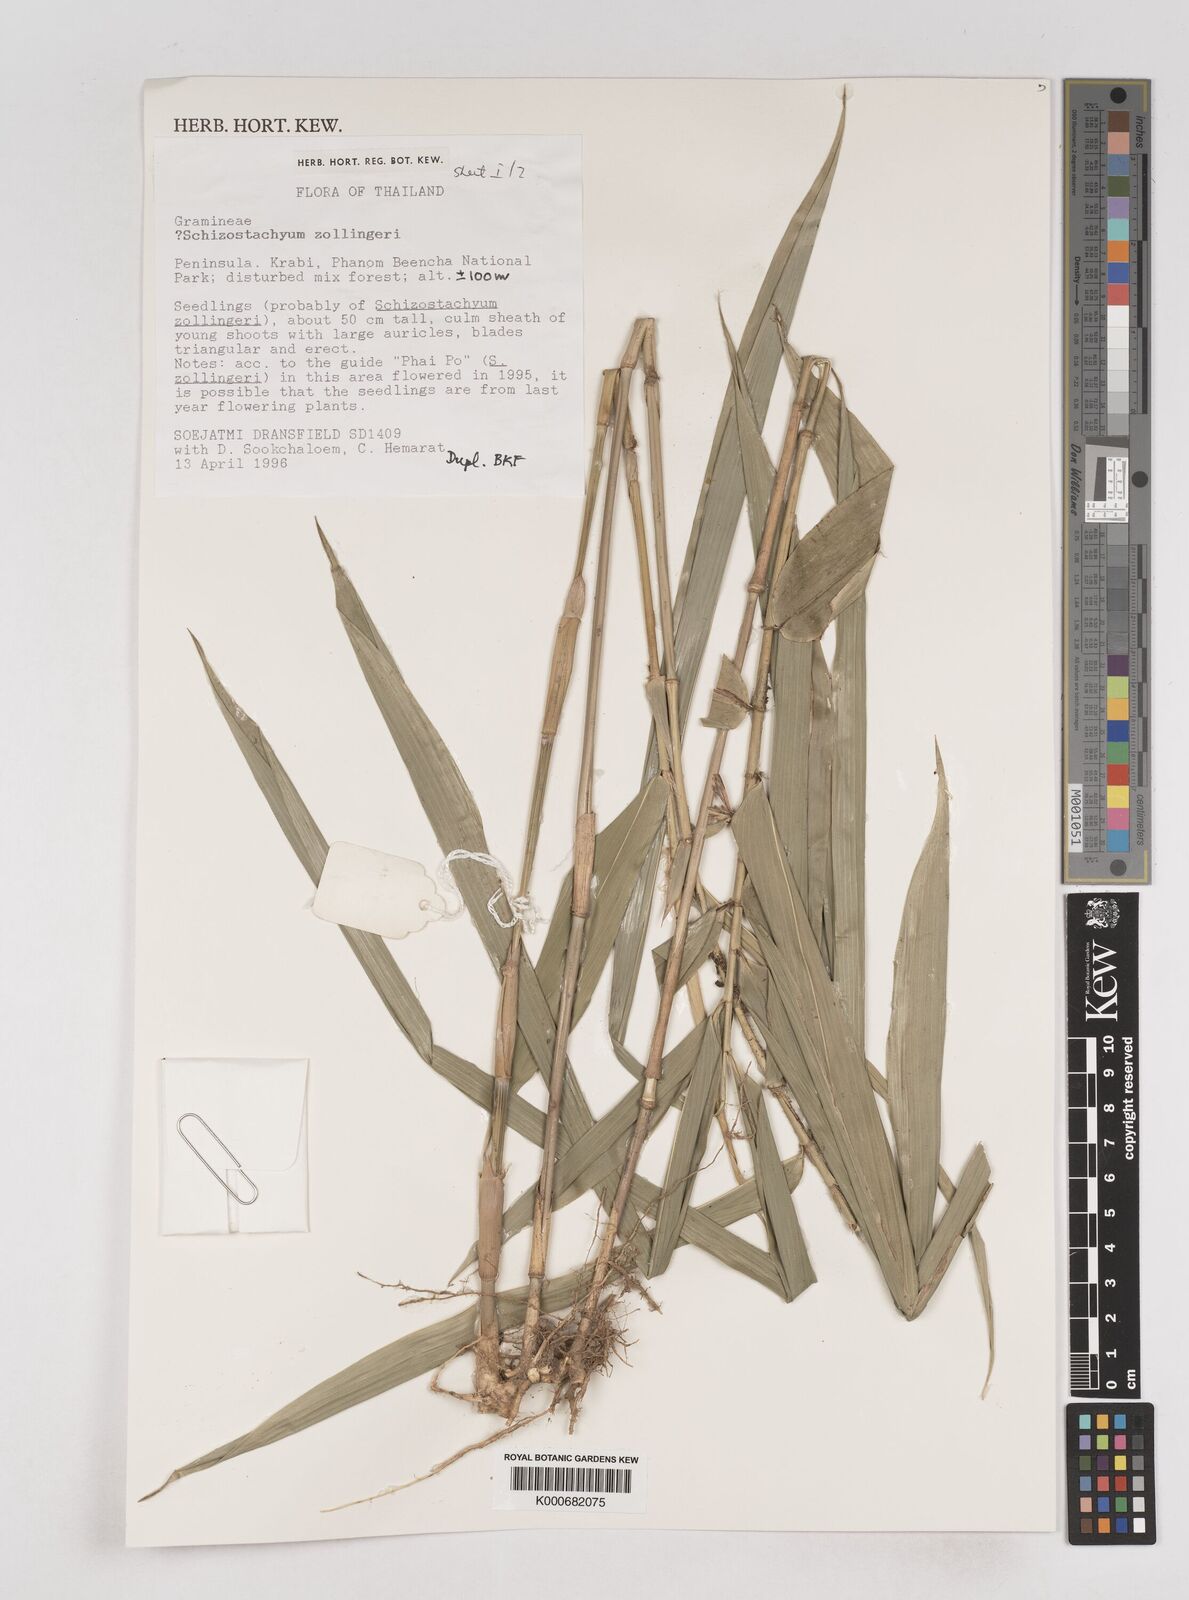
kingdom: Plantae
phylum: Tracheophyta
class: Liliopsida
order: Poales
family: Poaceae
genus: Schizostachyum
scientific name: Schizostachyum zollingeri
